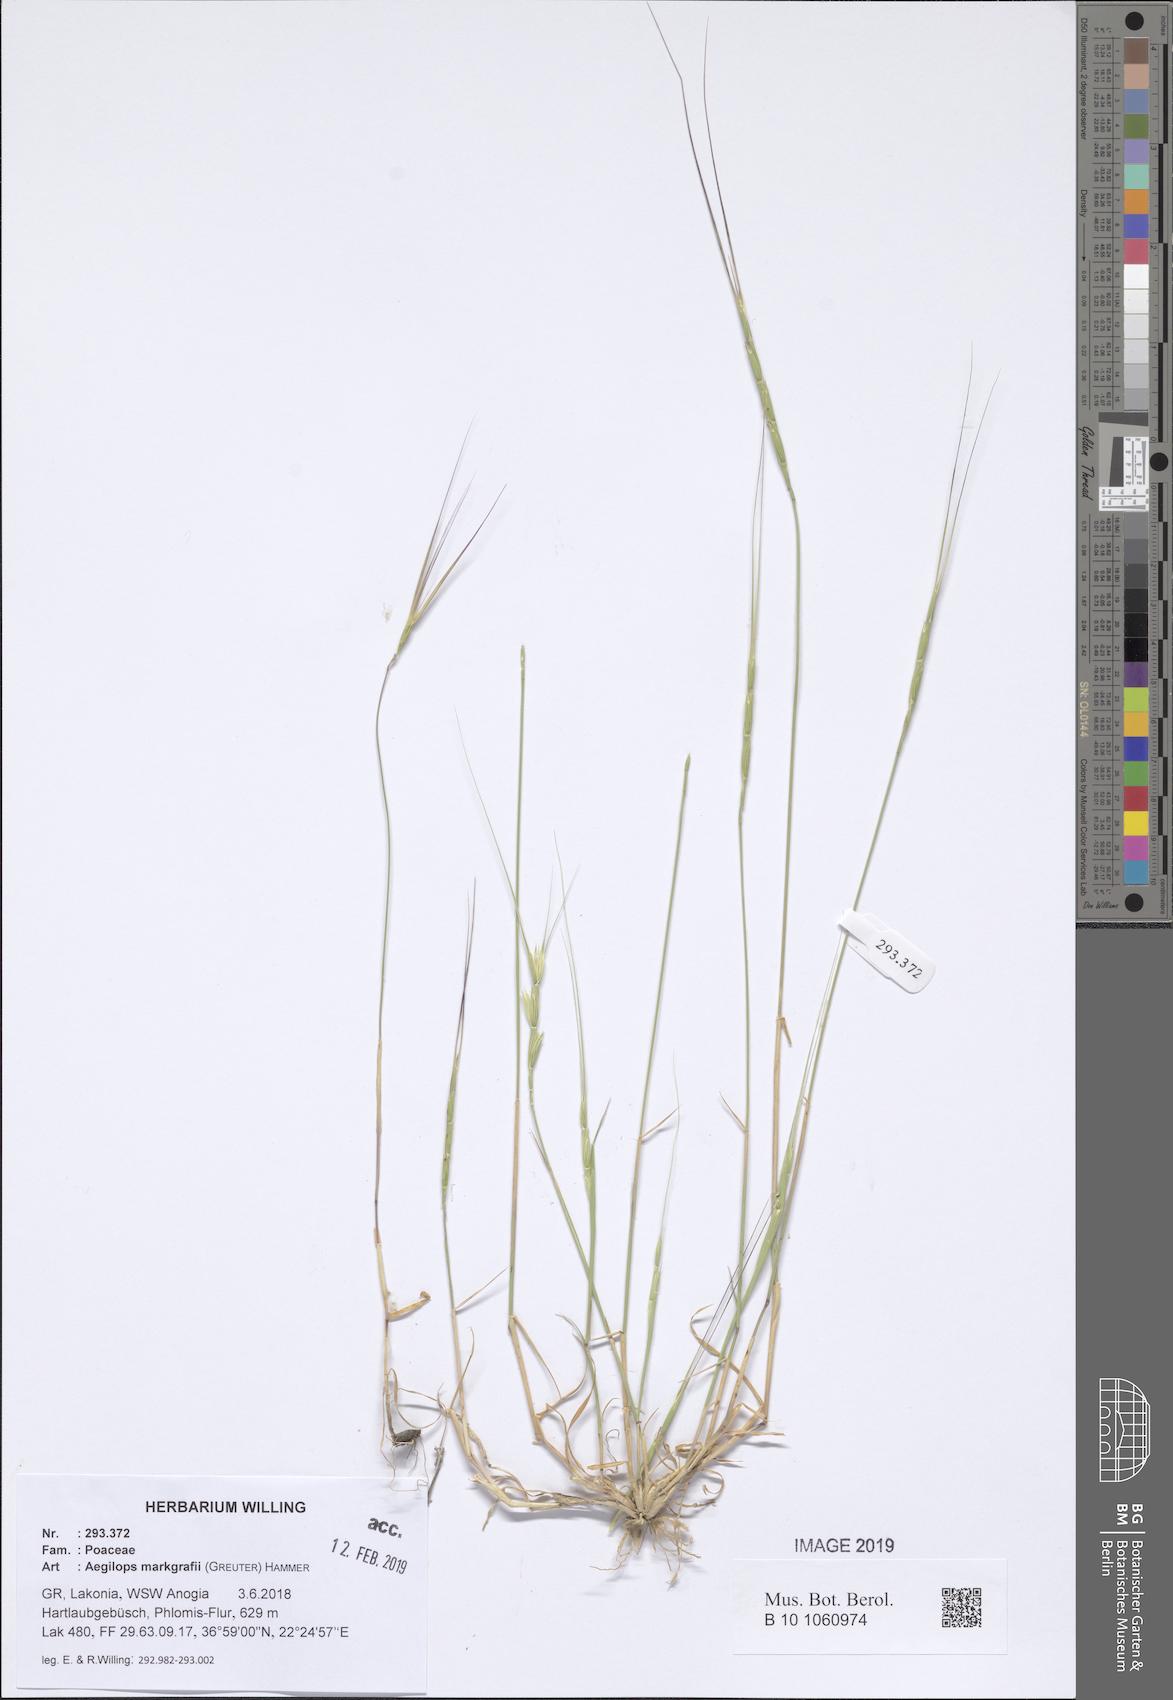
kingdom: Plantae
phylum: Tracheophyta
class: Liliopsida
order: Poales
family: Poaceae
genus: Aegilops
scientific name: Aegilops caudata
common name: Cretan hard-grass
